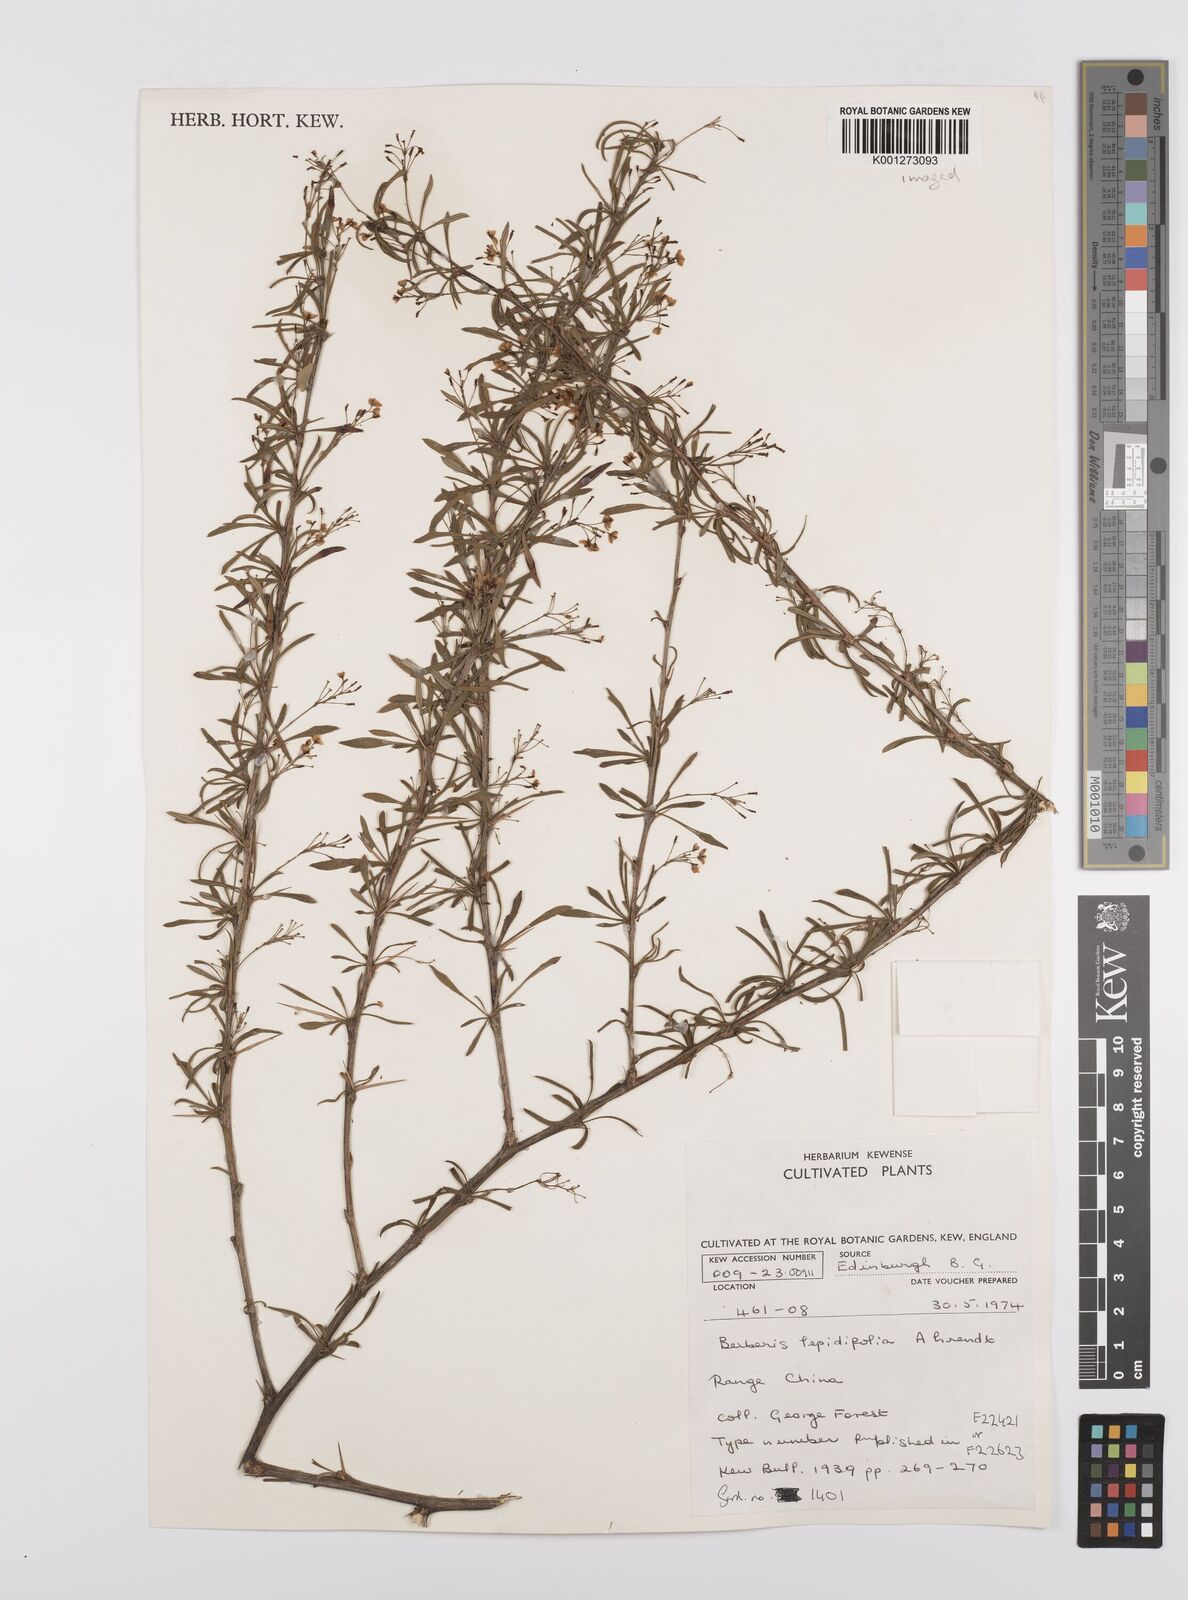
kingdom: Plantae
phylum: Tracheophyta
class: Magnoliopsida
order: Ranunculales
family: Berberidaceae
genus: Berberis
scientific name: Berberis
